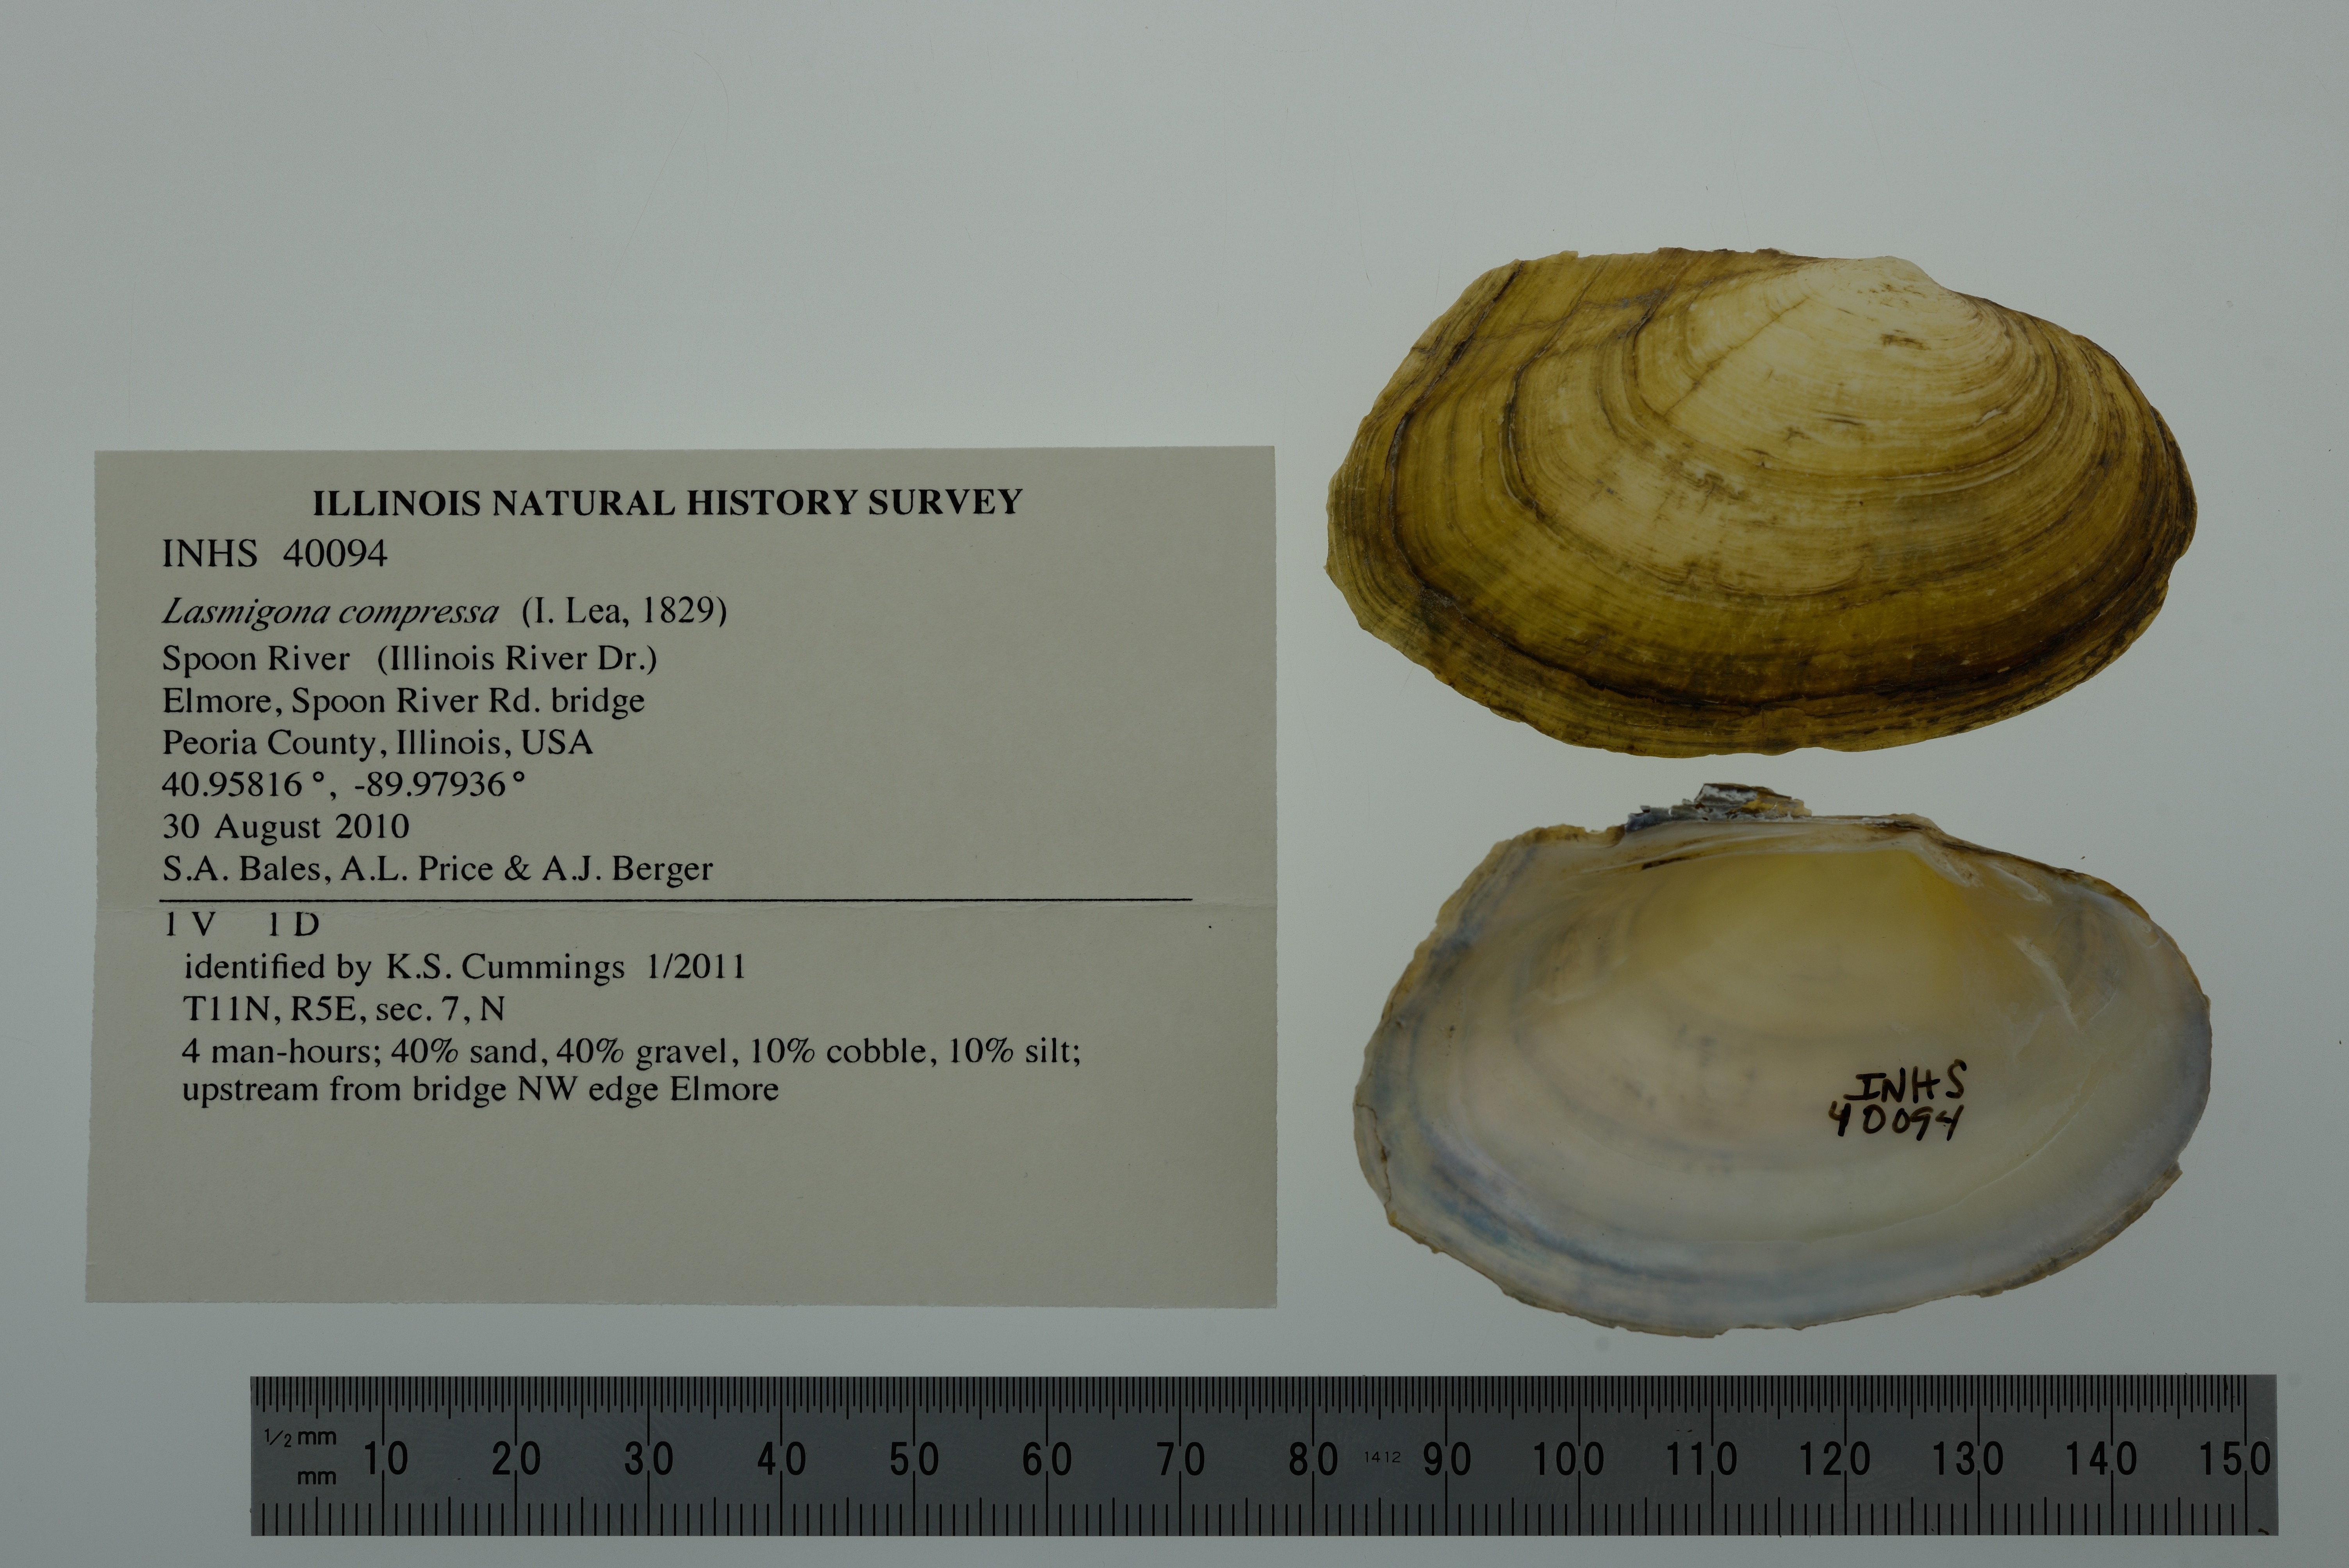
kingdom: Animalia
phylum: Mollusca
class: Bivalvia
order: Unionida
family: Unionidae
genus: Lasmigona
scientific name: Lasmigona compressa
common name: Creek heelsplitter
